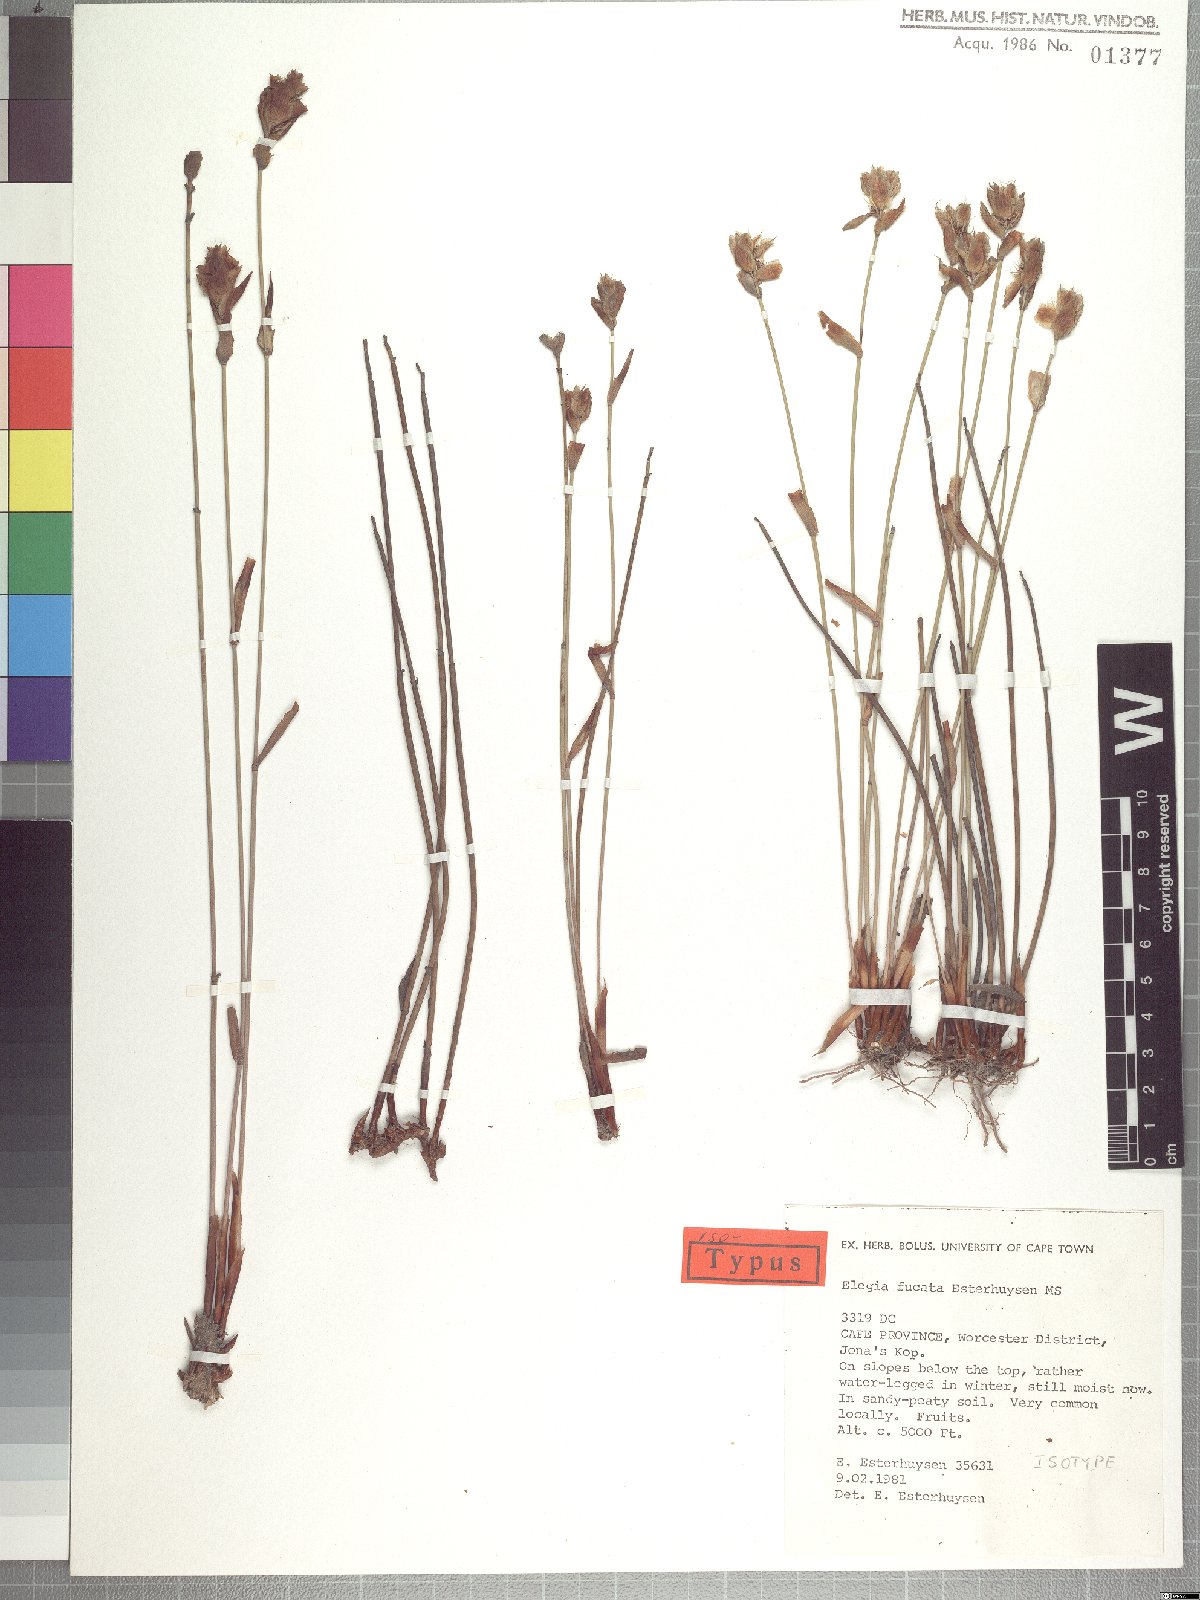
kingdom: Plantae
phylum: Tracheophyta
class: Liliopsida
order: Poales
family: Restionaceae
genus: Elegia
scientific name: Elegia fucata
